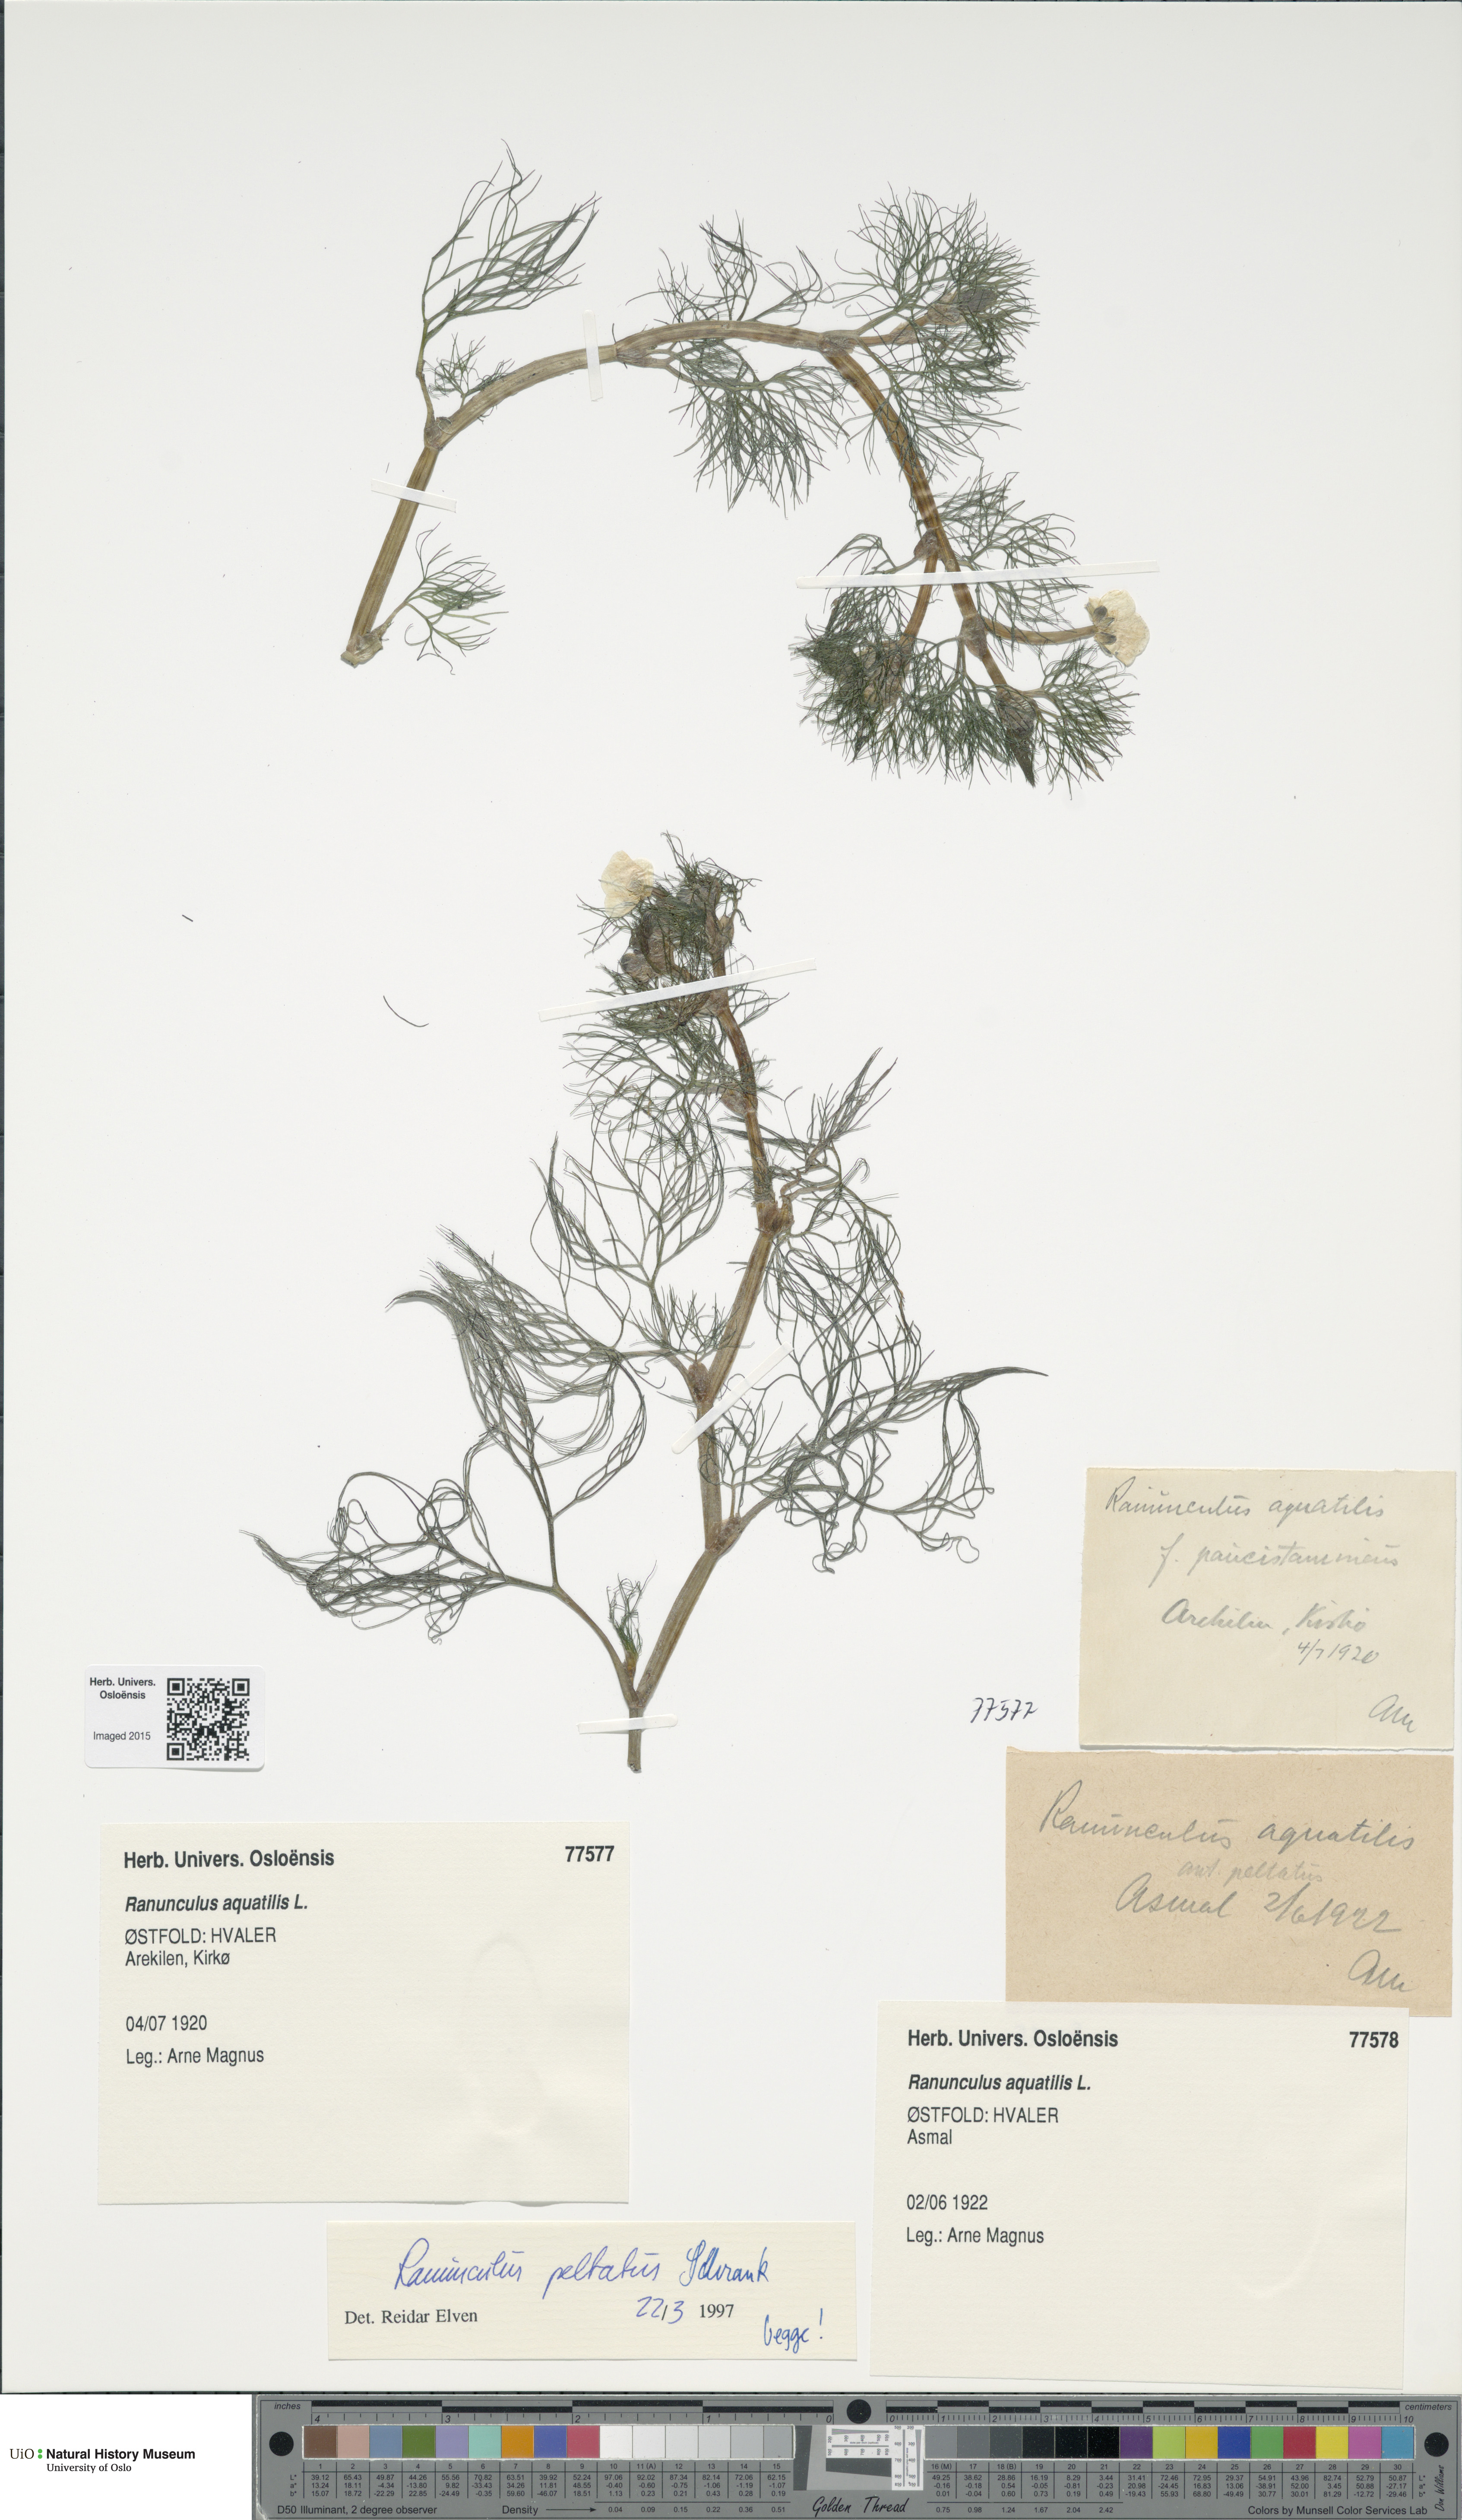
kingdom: Plantae
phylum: Tracheophyta
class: Magnoliopsida
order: Ranunculales
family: Ranunculaceae
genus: Ranunculus
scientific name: Ranunculus schmalhausenii
